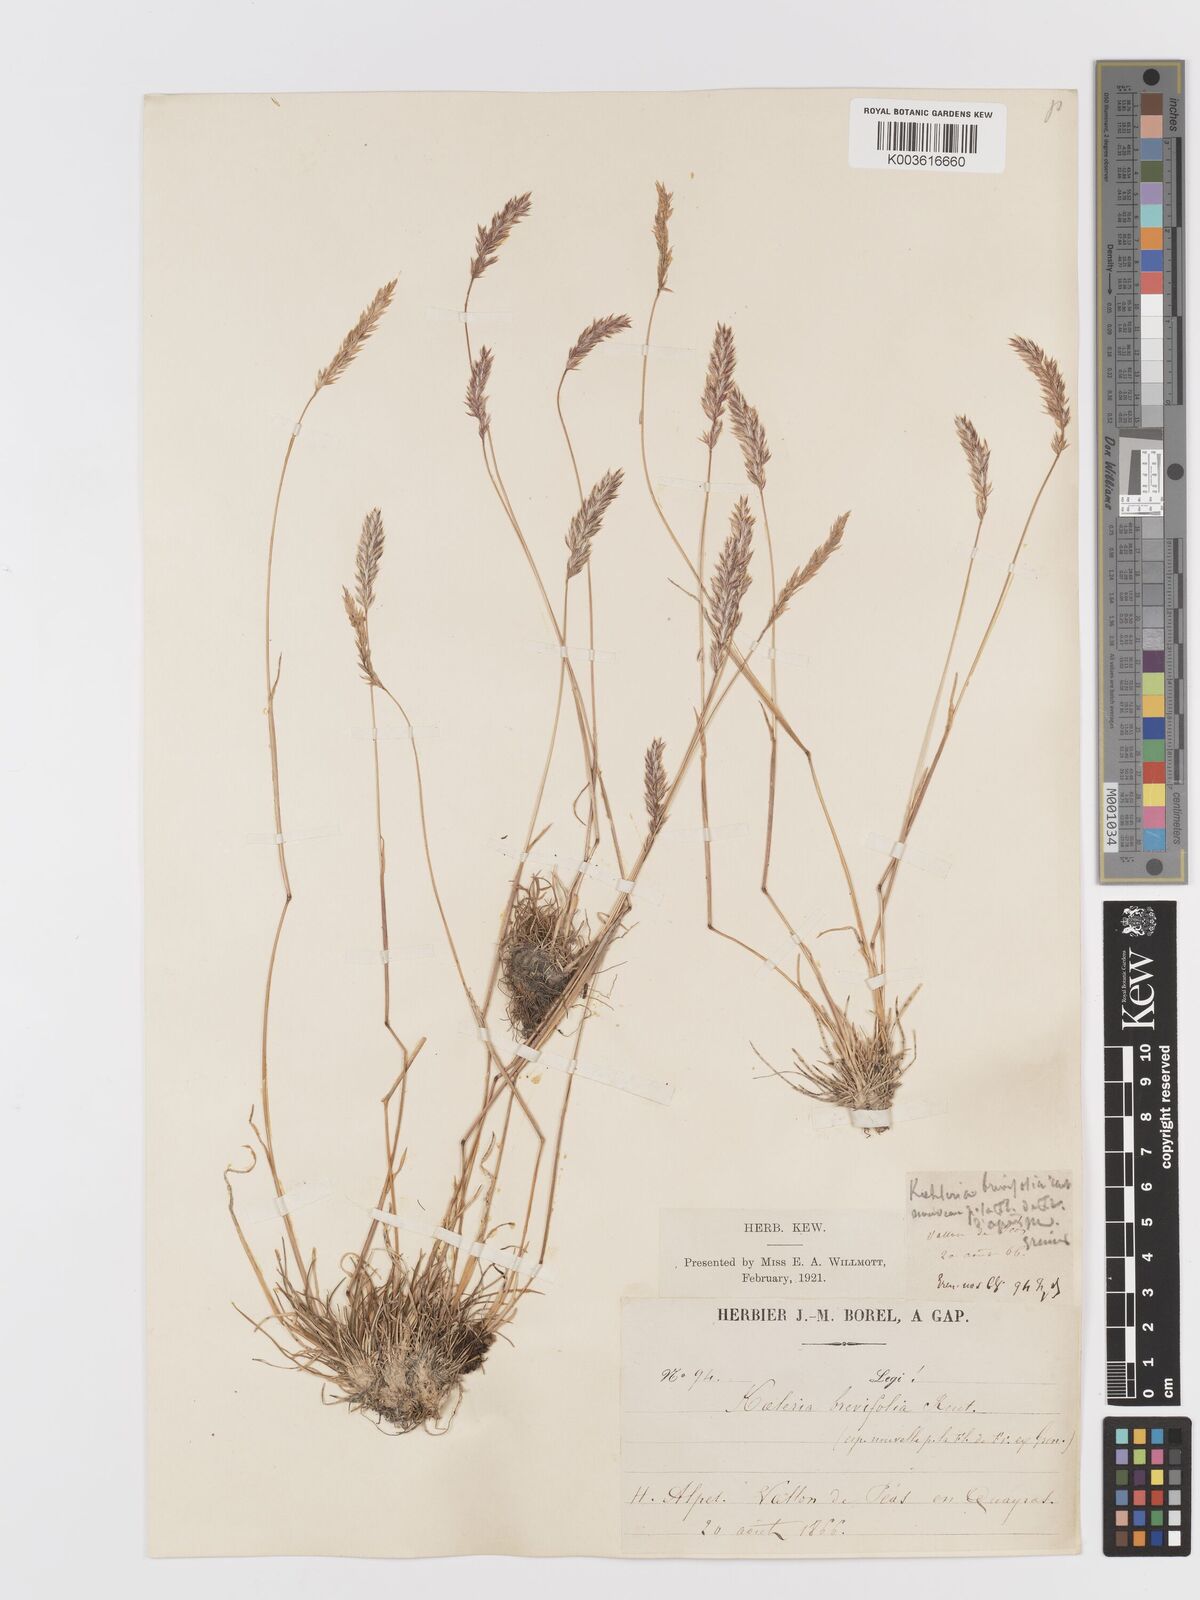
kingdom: Plantae
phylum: Tracheophyta
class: Liliopsida
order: Poales
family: Poaceae
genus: Koeleria
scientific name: Koeleria cenisia
